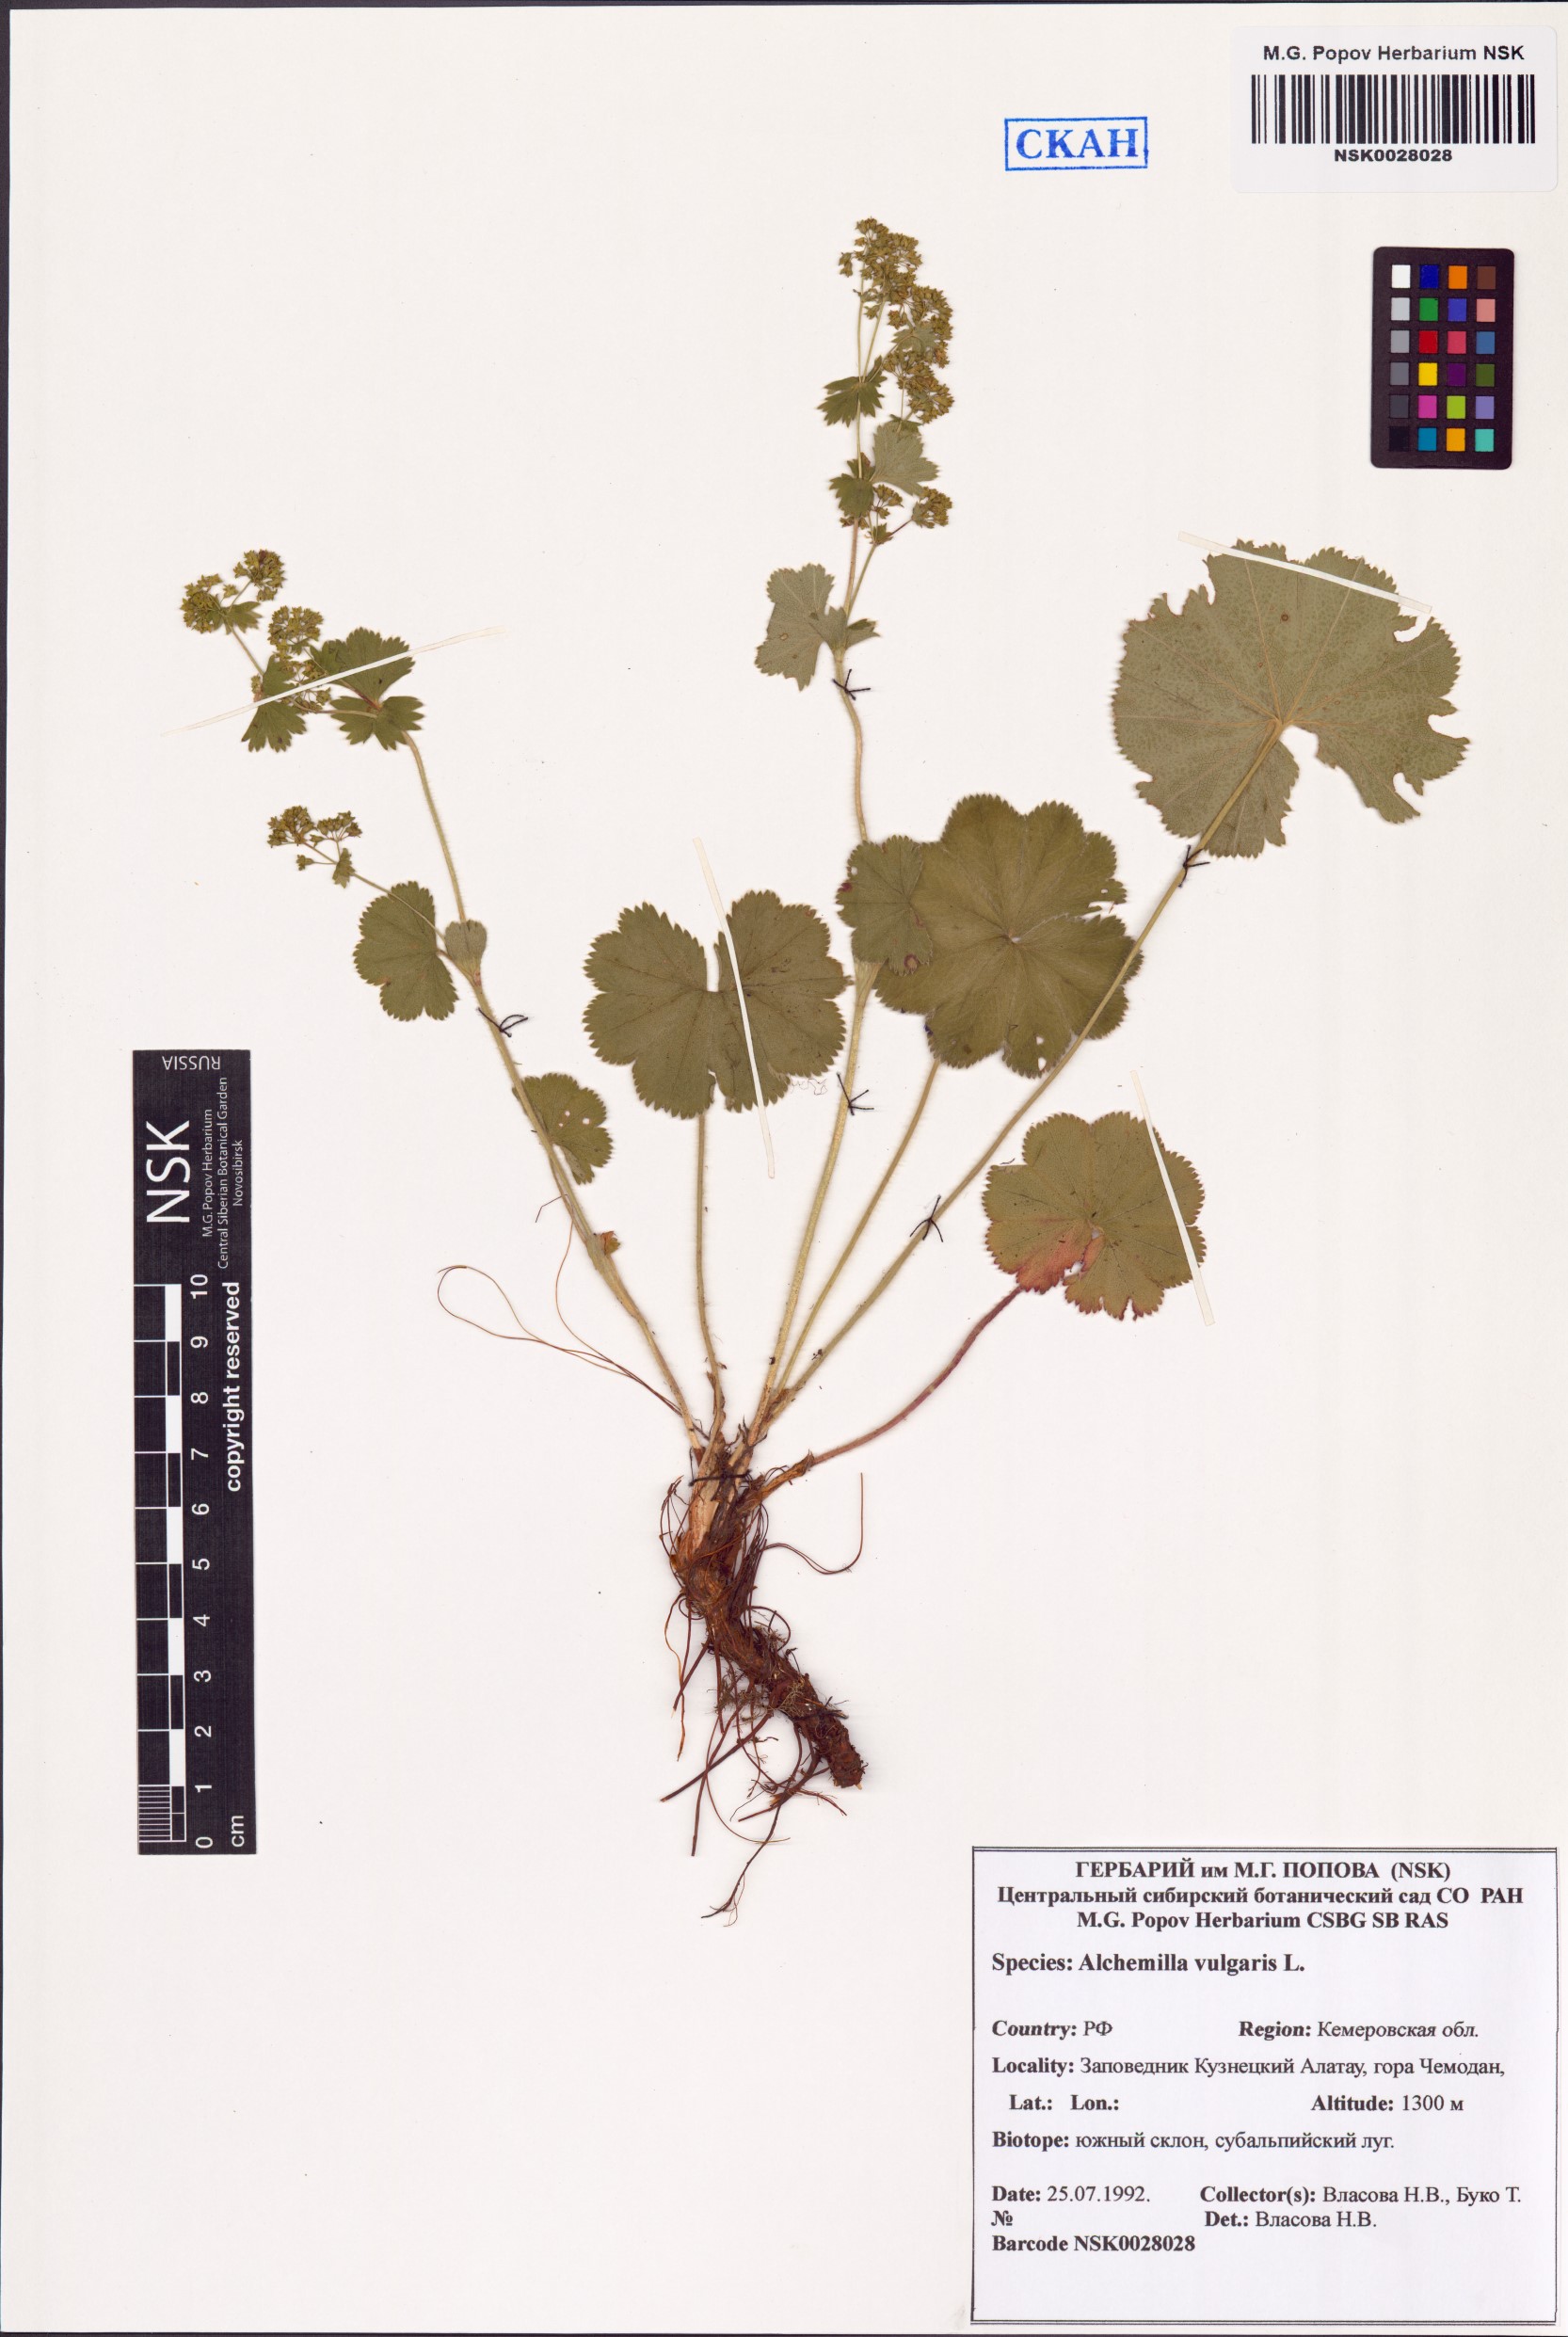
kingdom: Plantae
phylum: Tracheophyta
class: Magnoliopsida
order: Rosales
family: Rosaceae
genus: Alchemilla
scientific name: Alchemilla vulgaris
